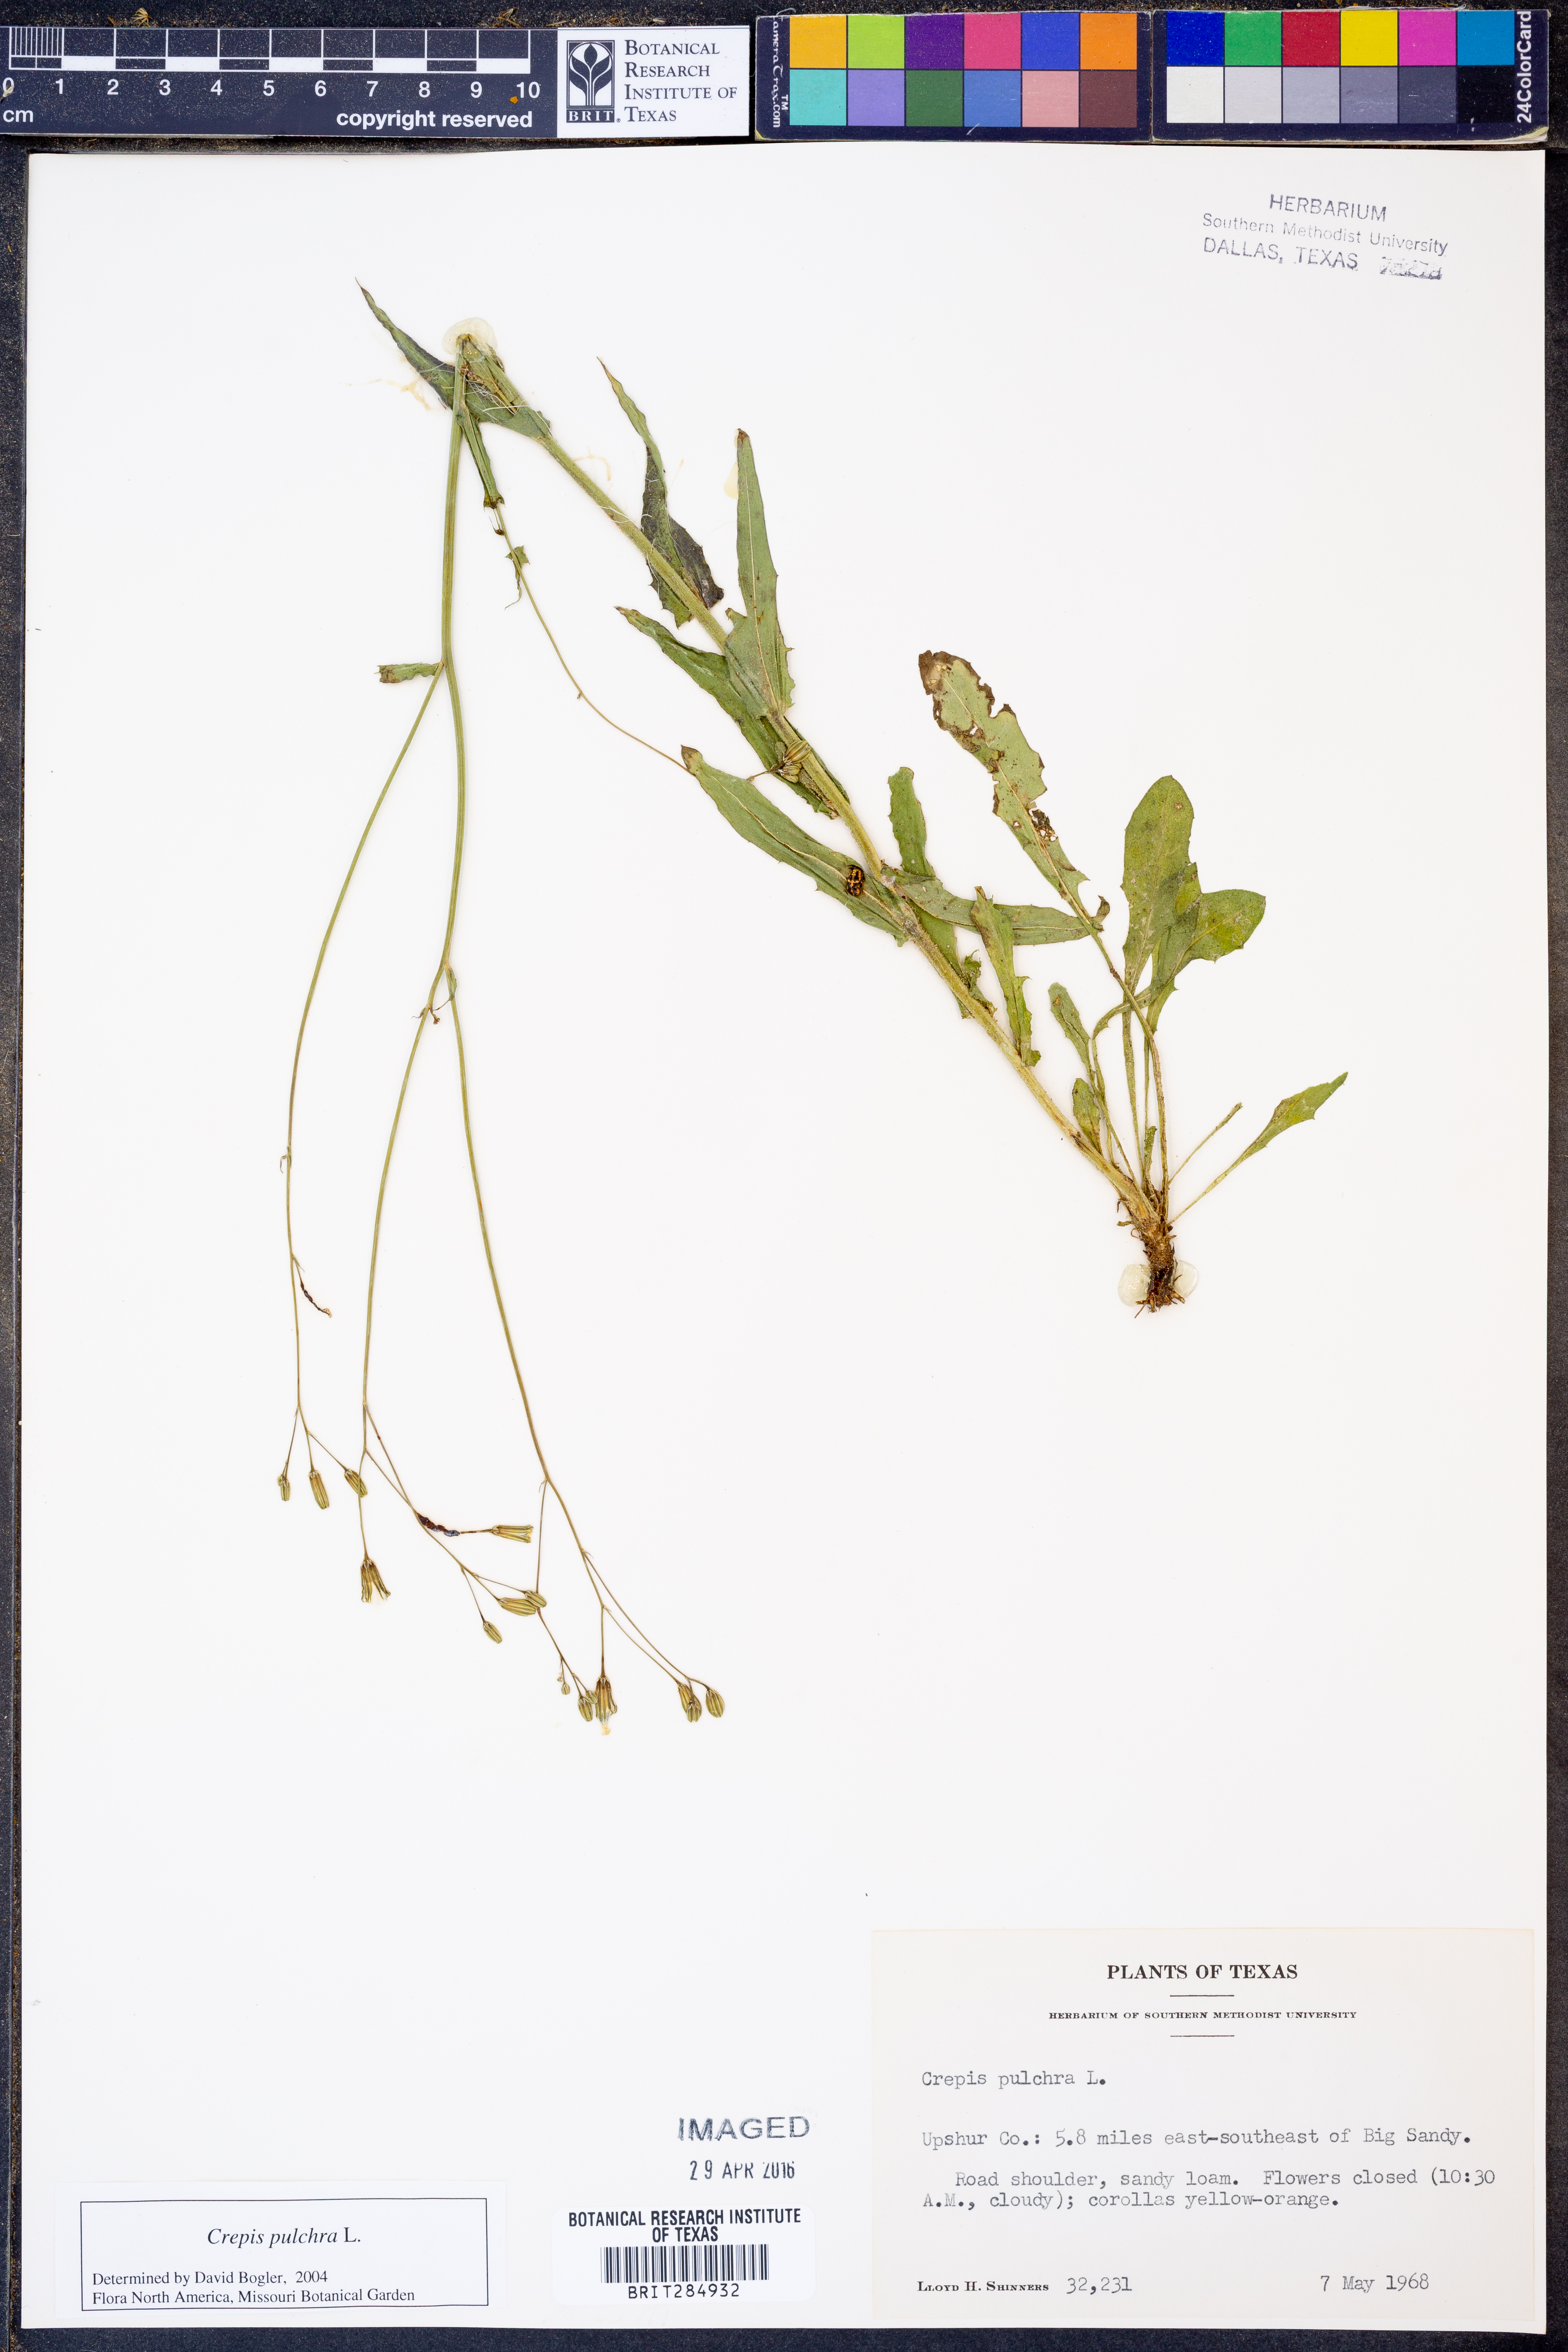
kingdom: Plantae
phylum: Tracheophyta
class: Magnoliopsida
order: Asterales
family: Asteraceae
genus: Crepis
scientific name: Crepis pulchra
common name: Hawk's-beard
